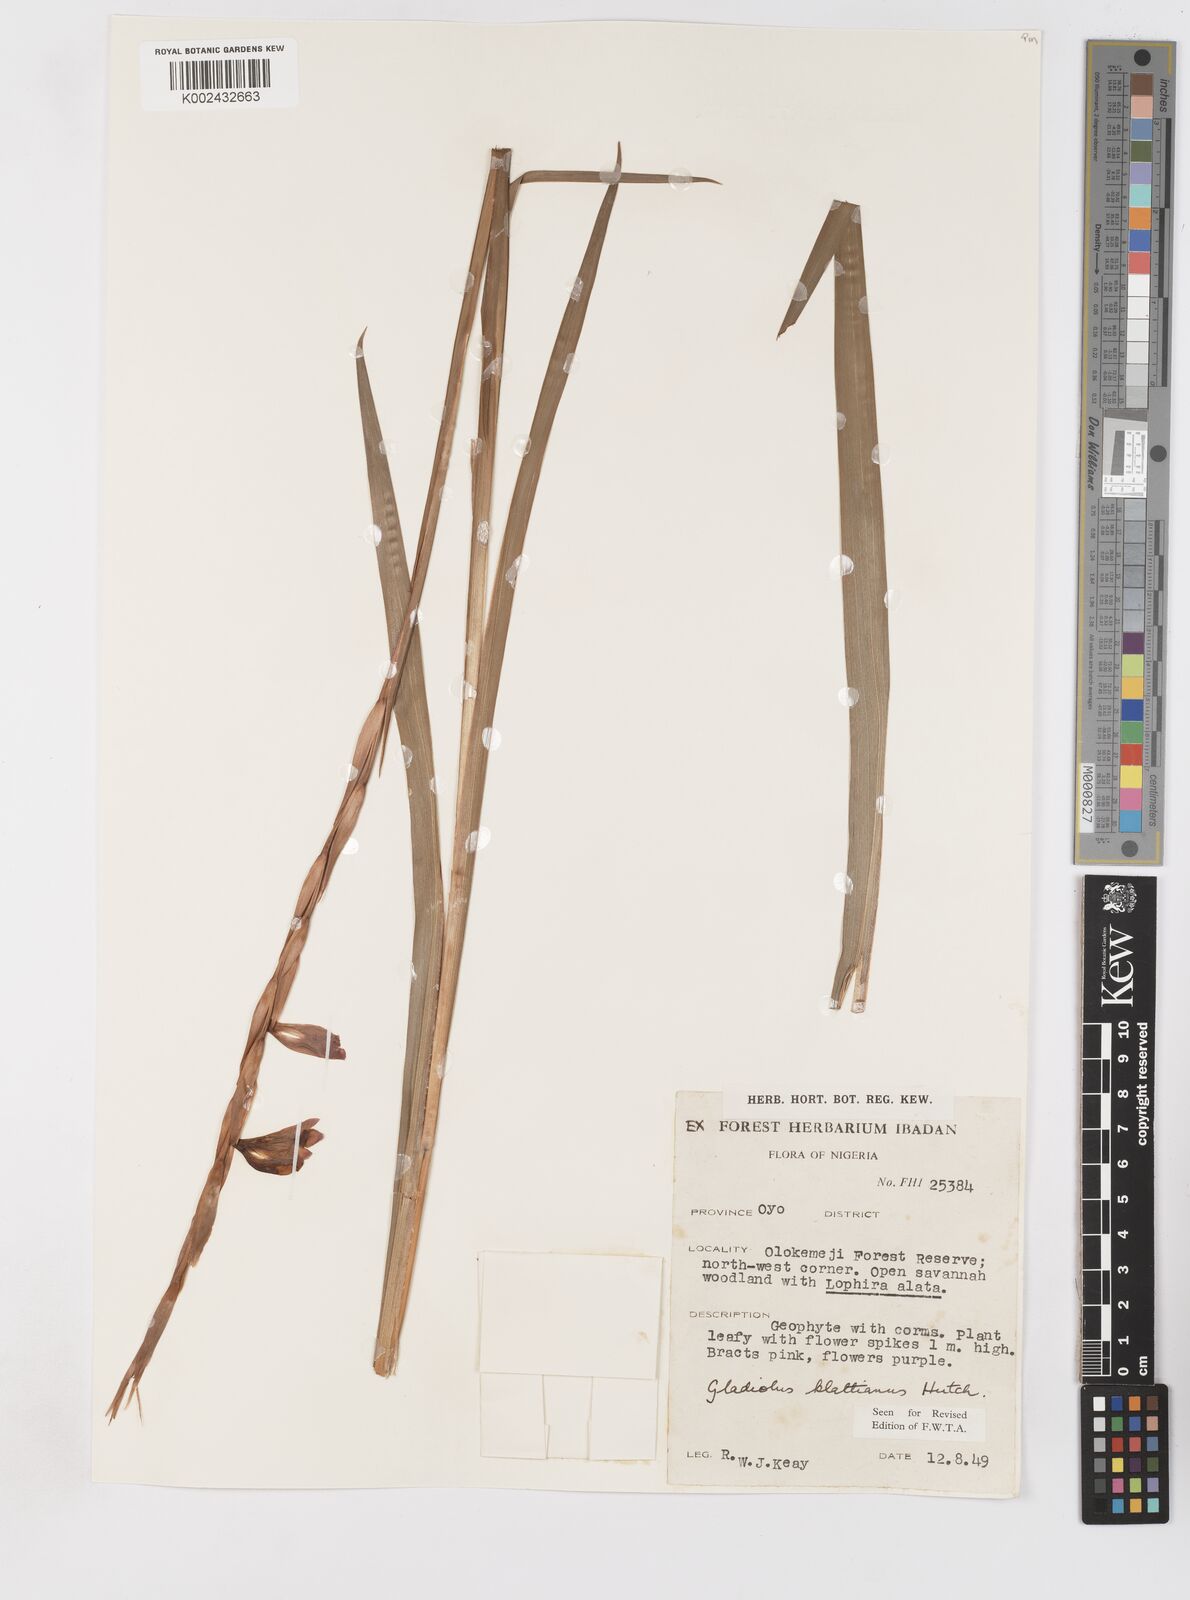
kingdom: Plantae
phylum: Tracheophyta
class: Liliopsida
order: Asparagales
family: Iridaceae
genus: Gladiolus
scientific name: Gladiolus gregarius
